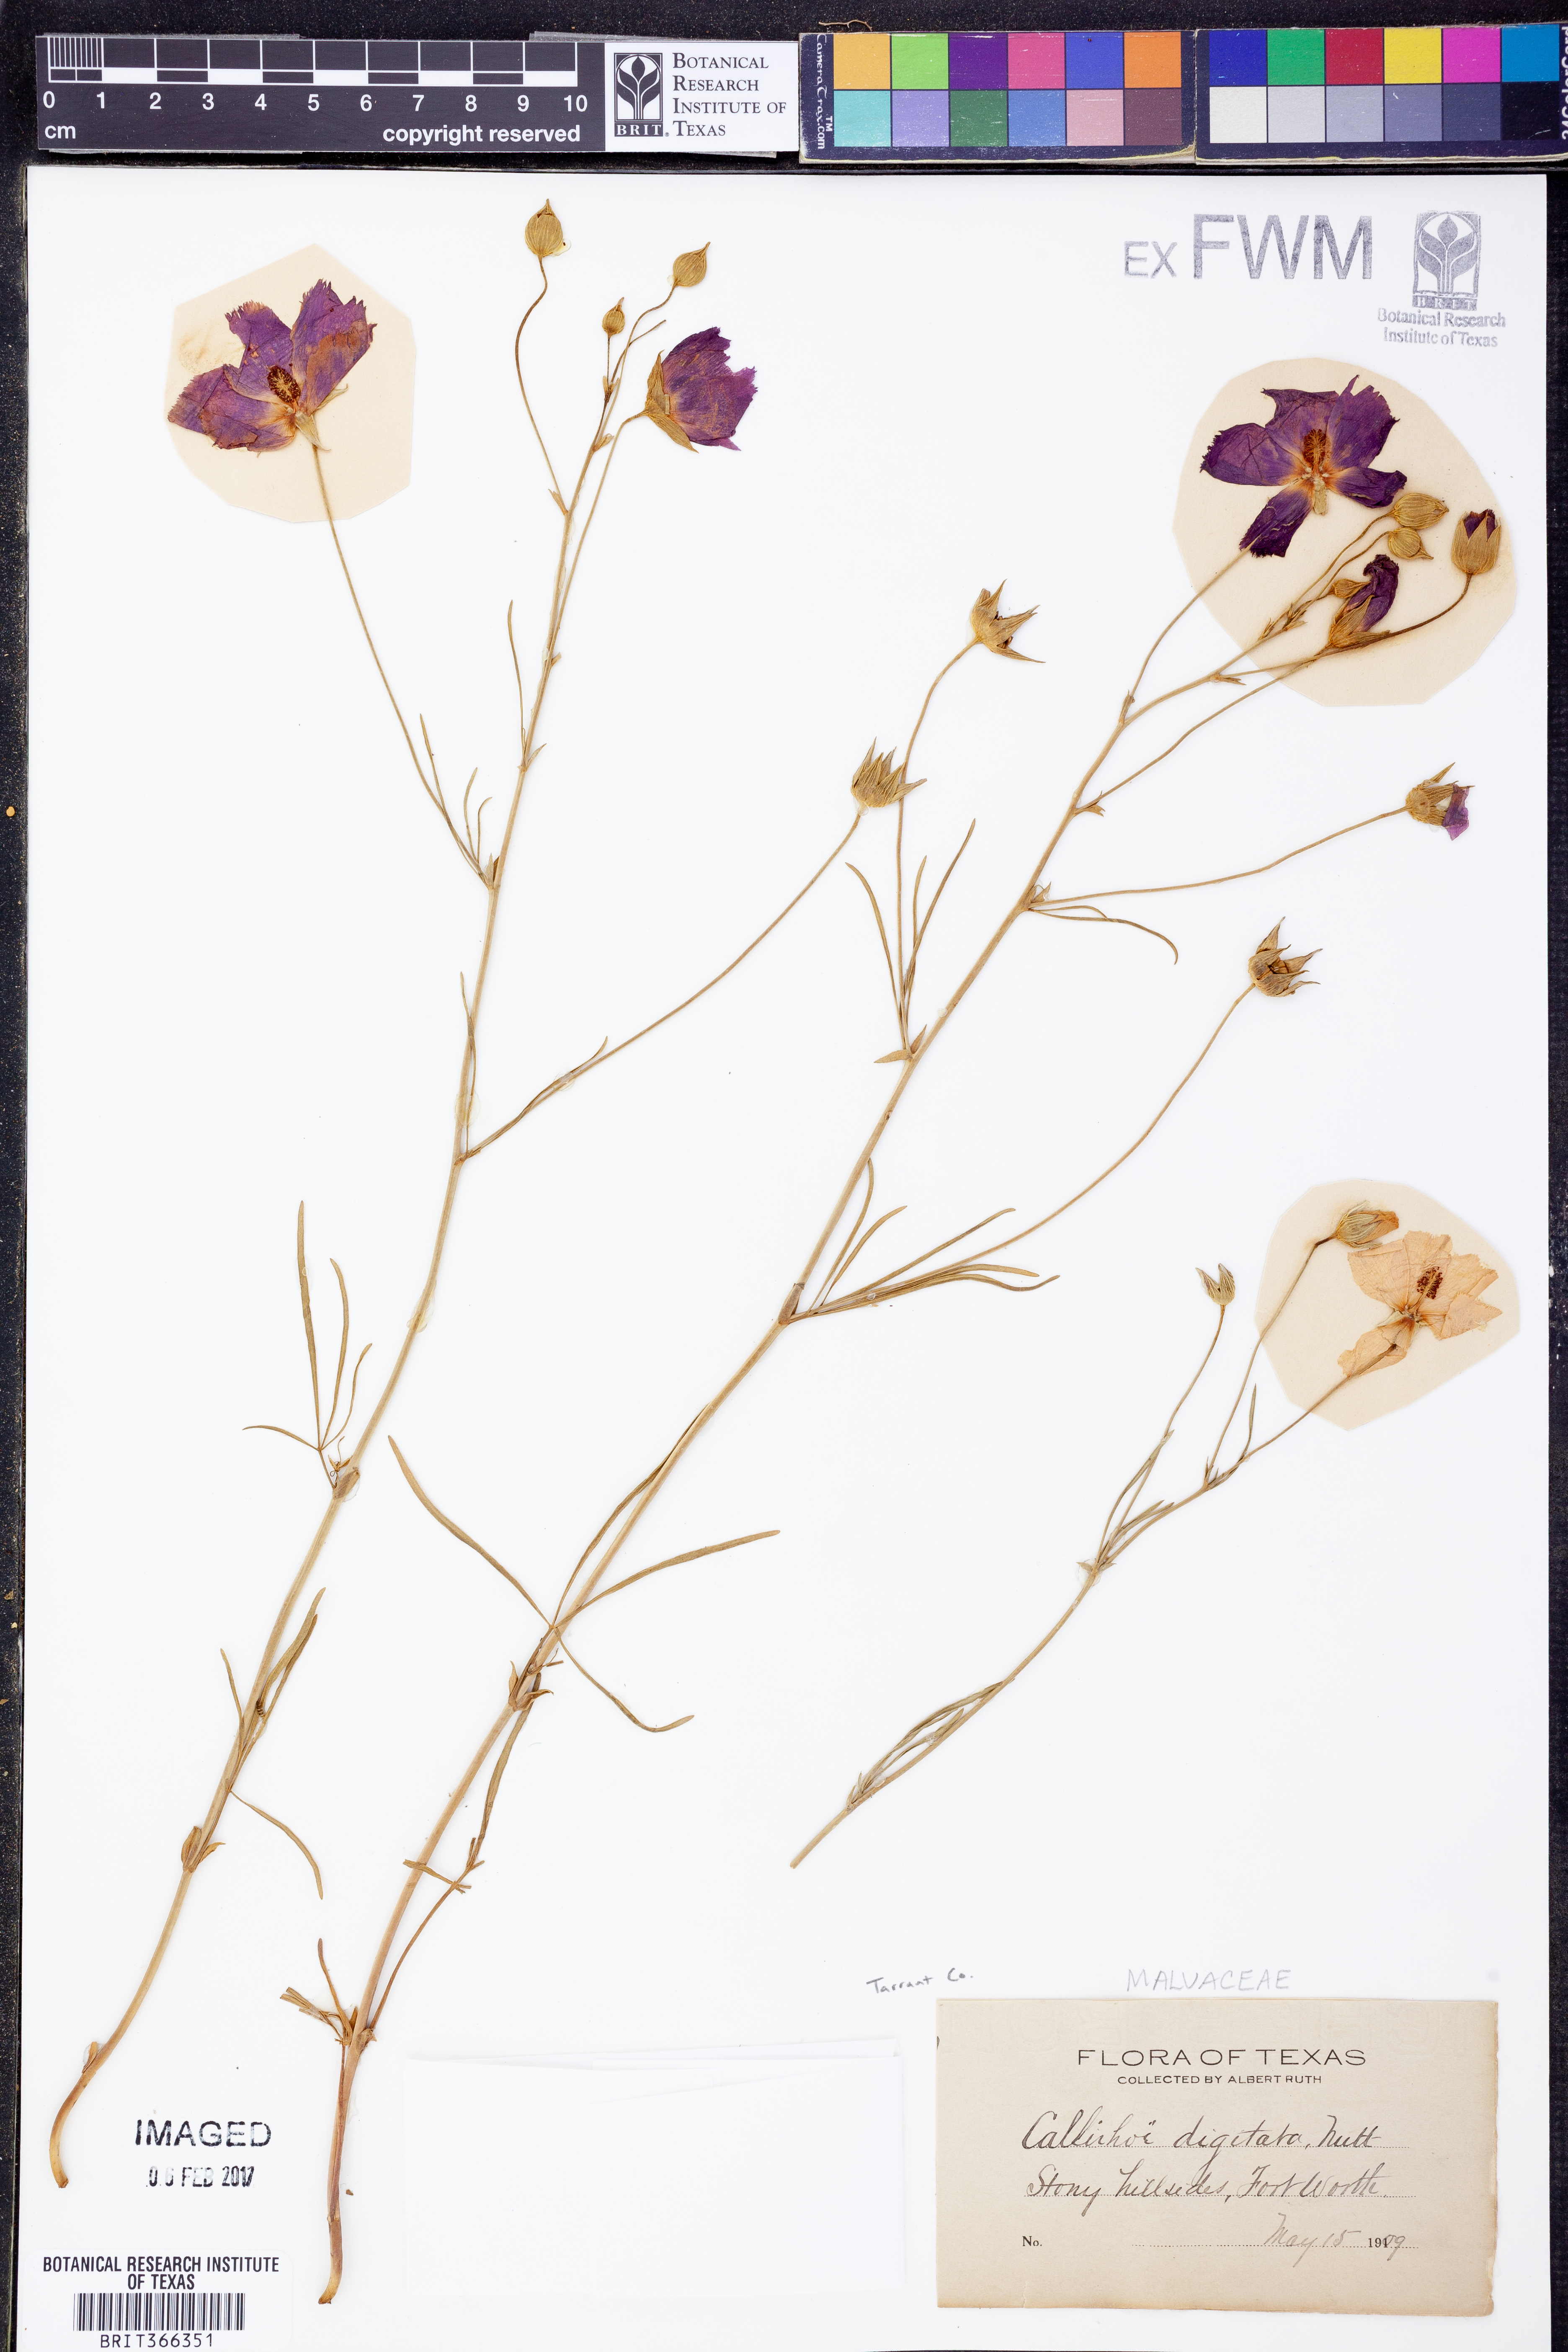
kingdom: Plantae
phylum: Tracheophyta
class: Magnoliopsida
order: Malvales
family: Malvaceae
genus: Callirhoe
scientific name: Callirhoe digitata
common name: Finger poppy-mallow
